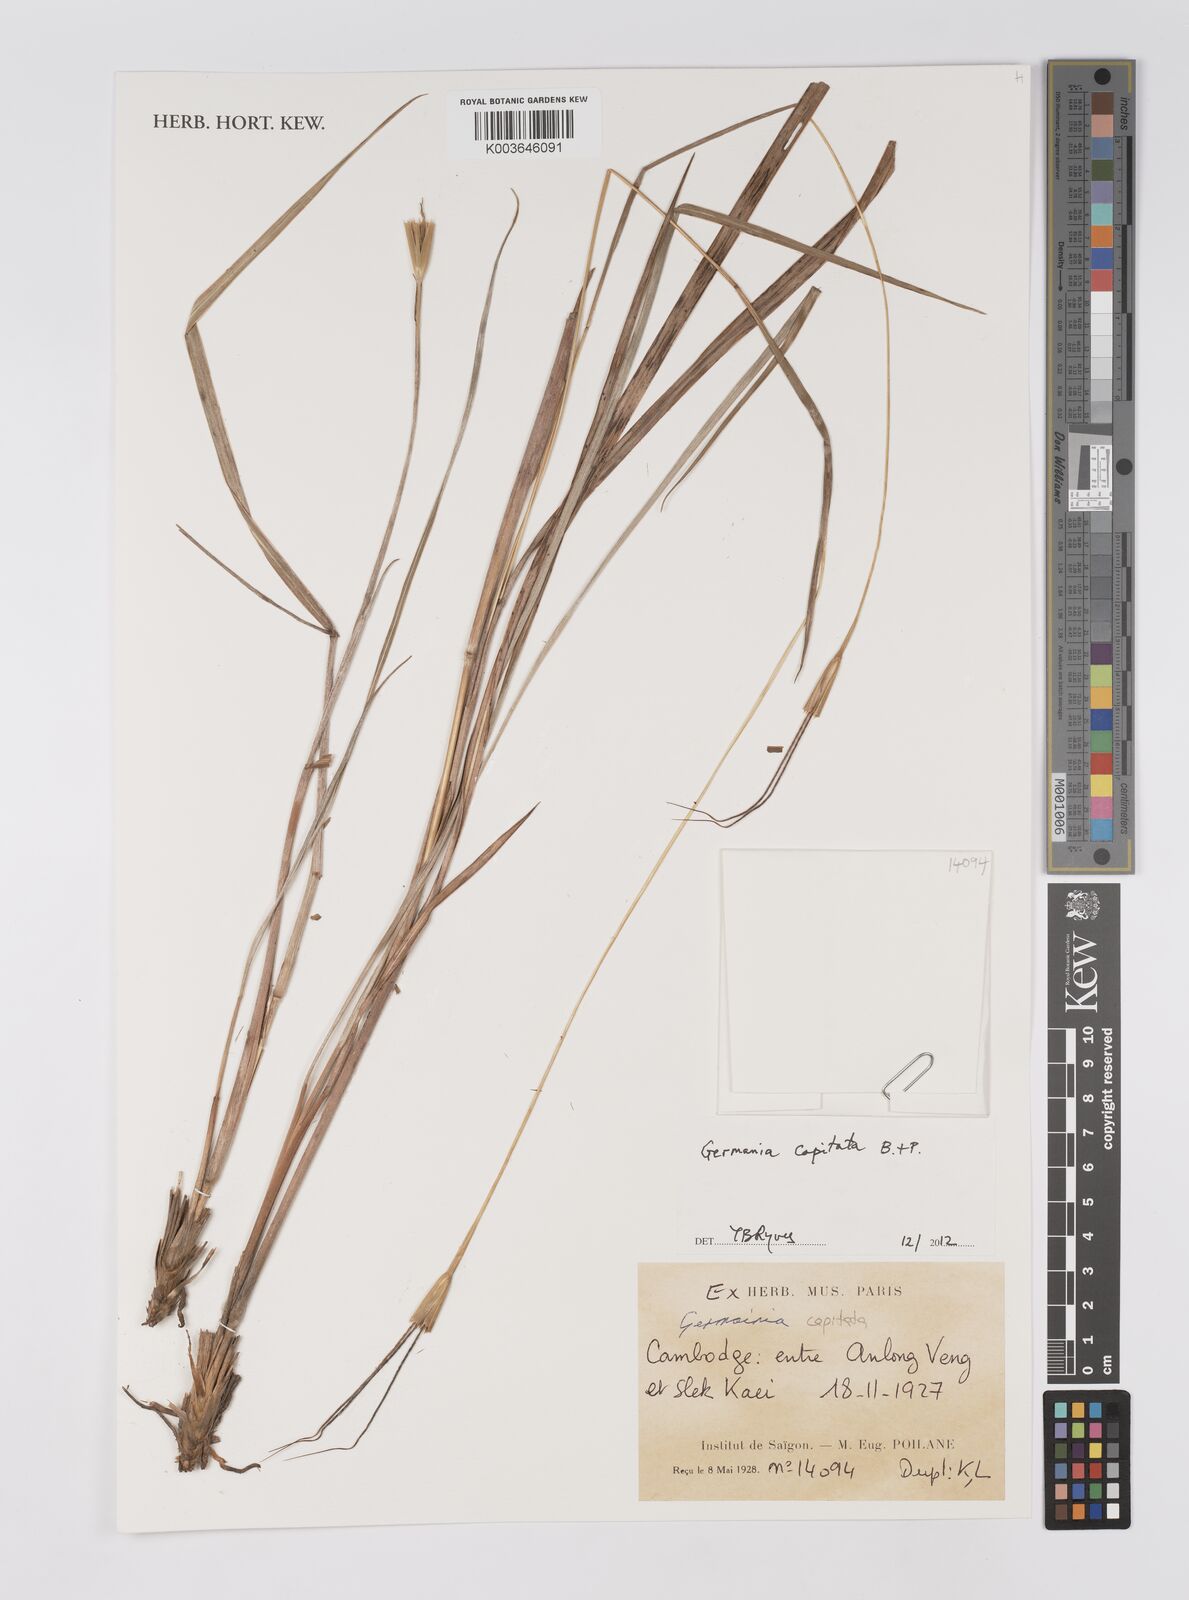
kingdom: Plantae
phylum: Tracheophyta
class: Liliopsida
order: Poales
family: Poaceae
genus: Germainia
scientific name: Germainia capitata
